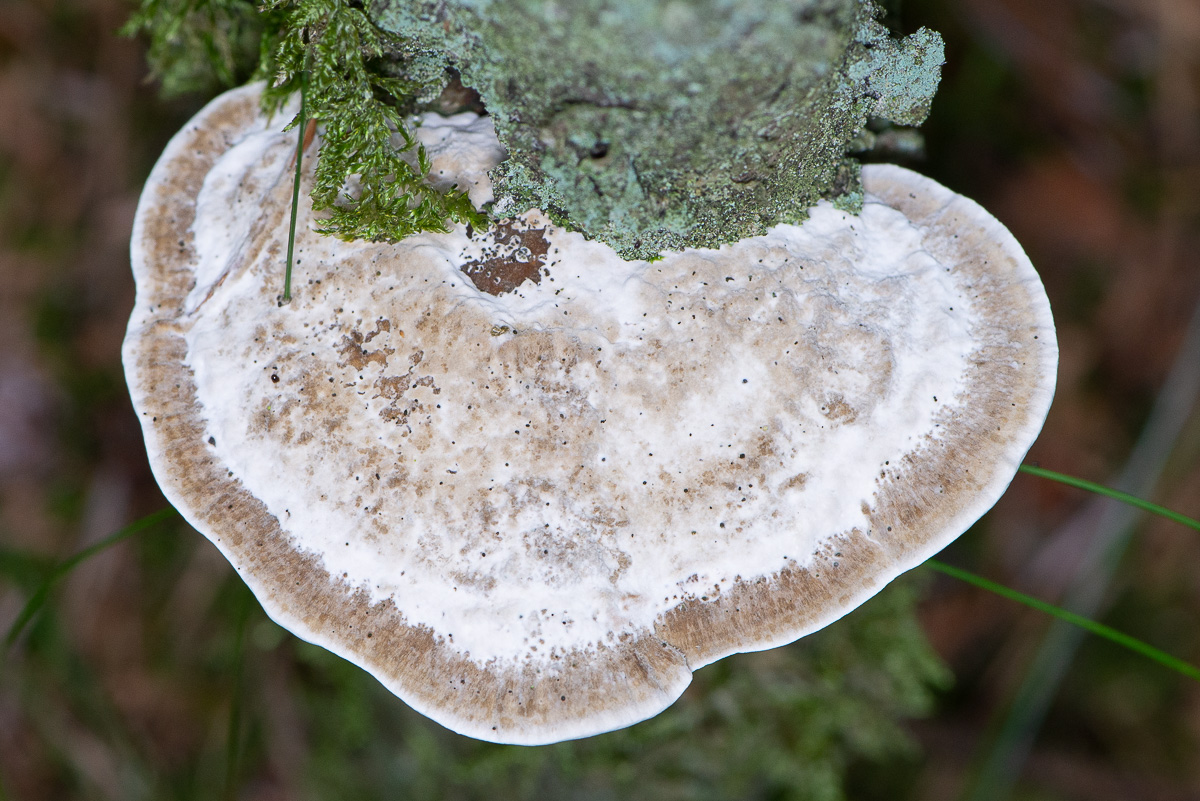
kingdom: Fungi
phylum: Basidiomycota
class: Agaricomycetes
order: Polyporales
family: Polyporaceae
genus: Daedaleopsis
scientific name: Daedaleopsis confragosa
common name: rødmende læderporesvamp
